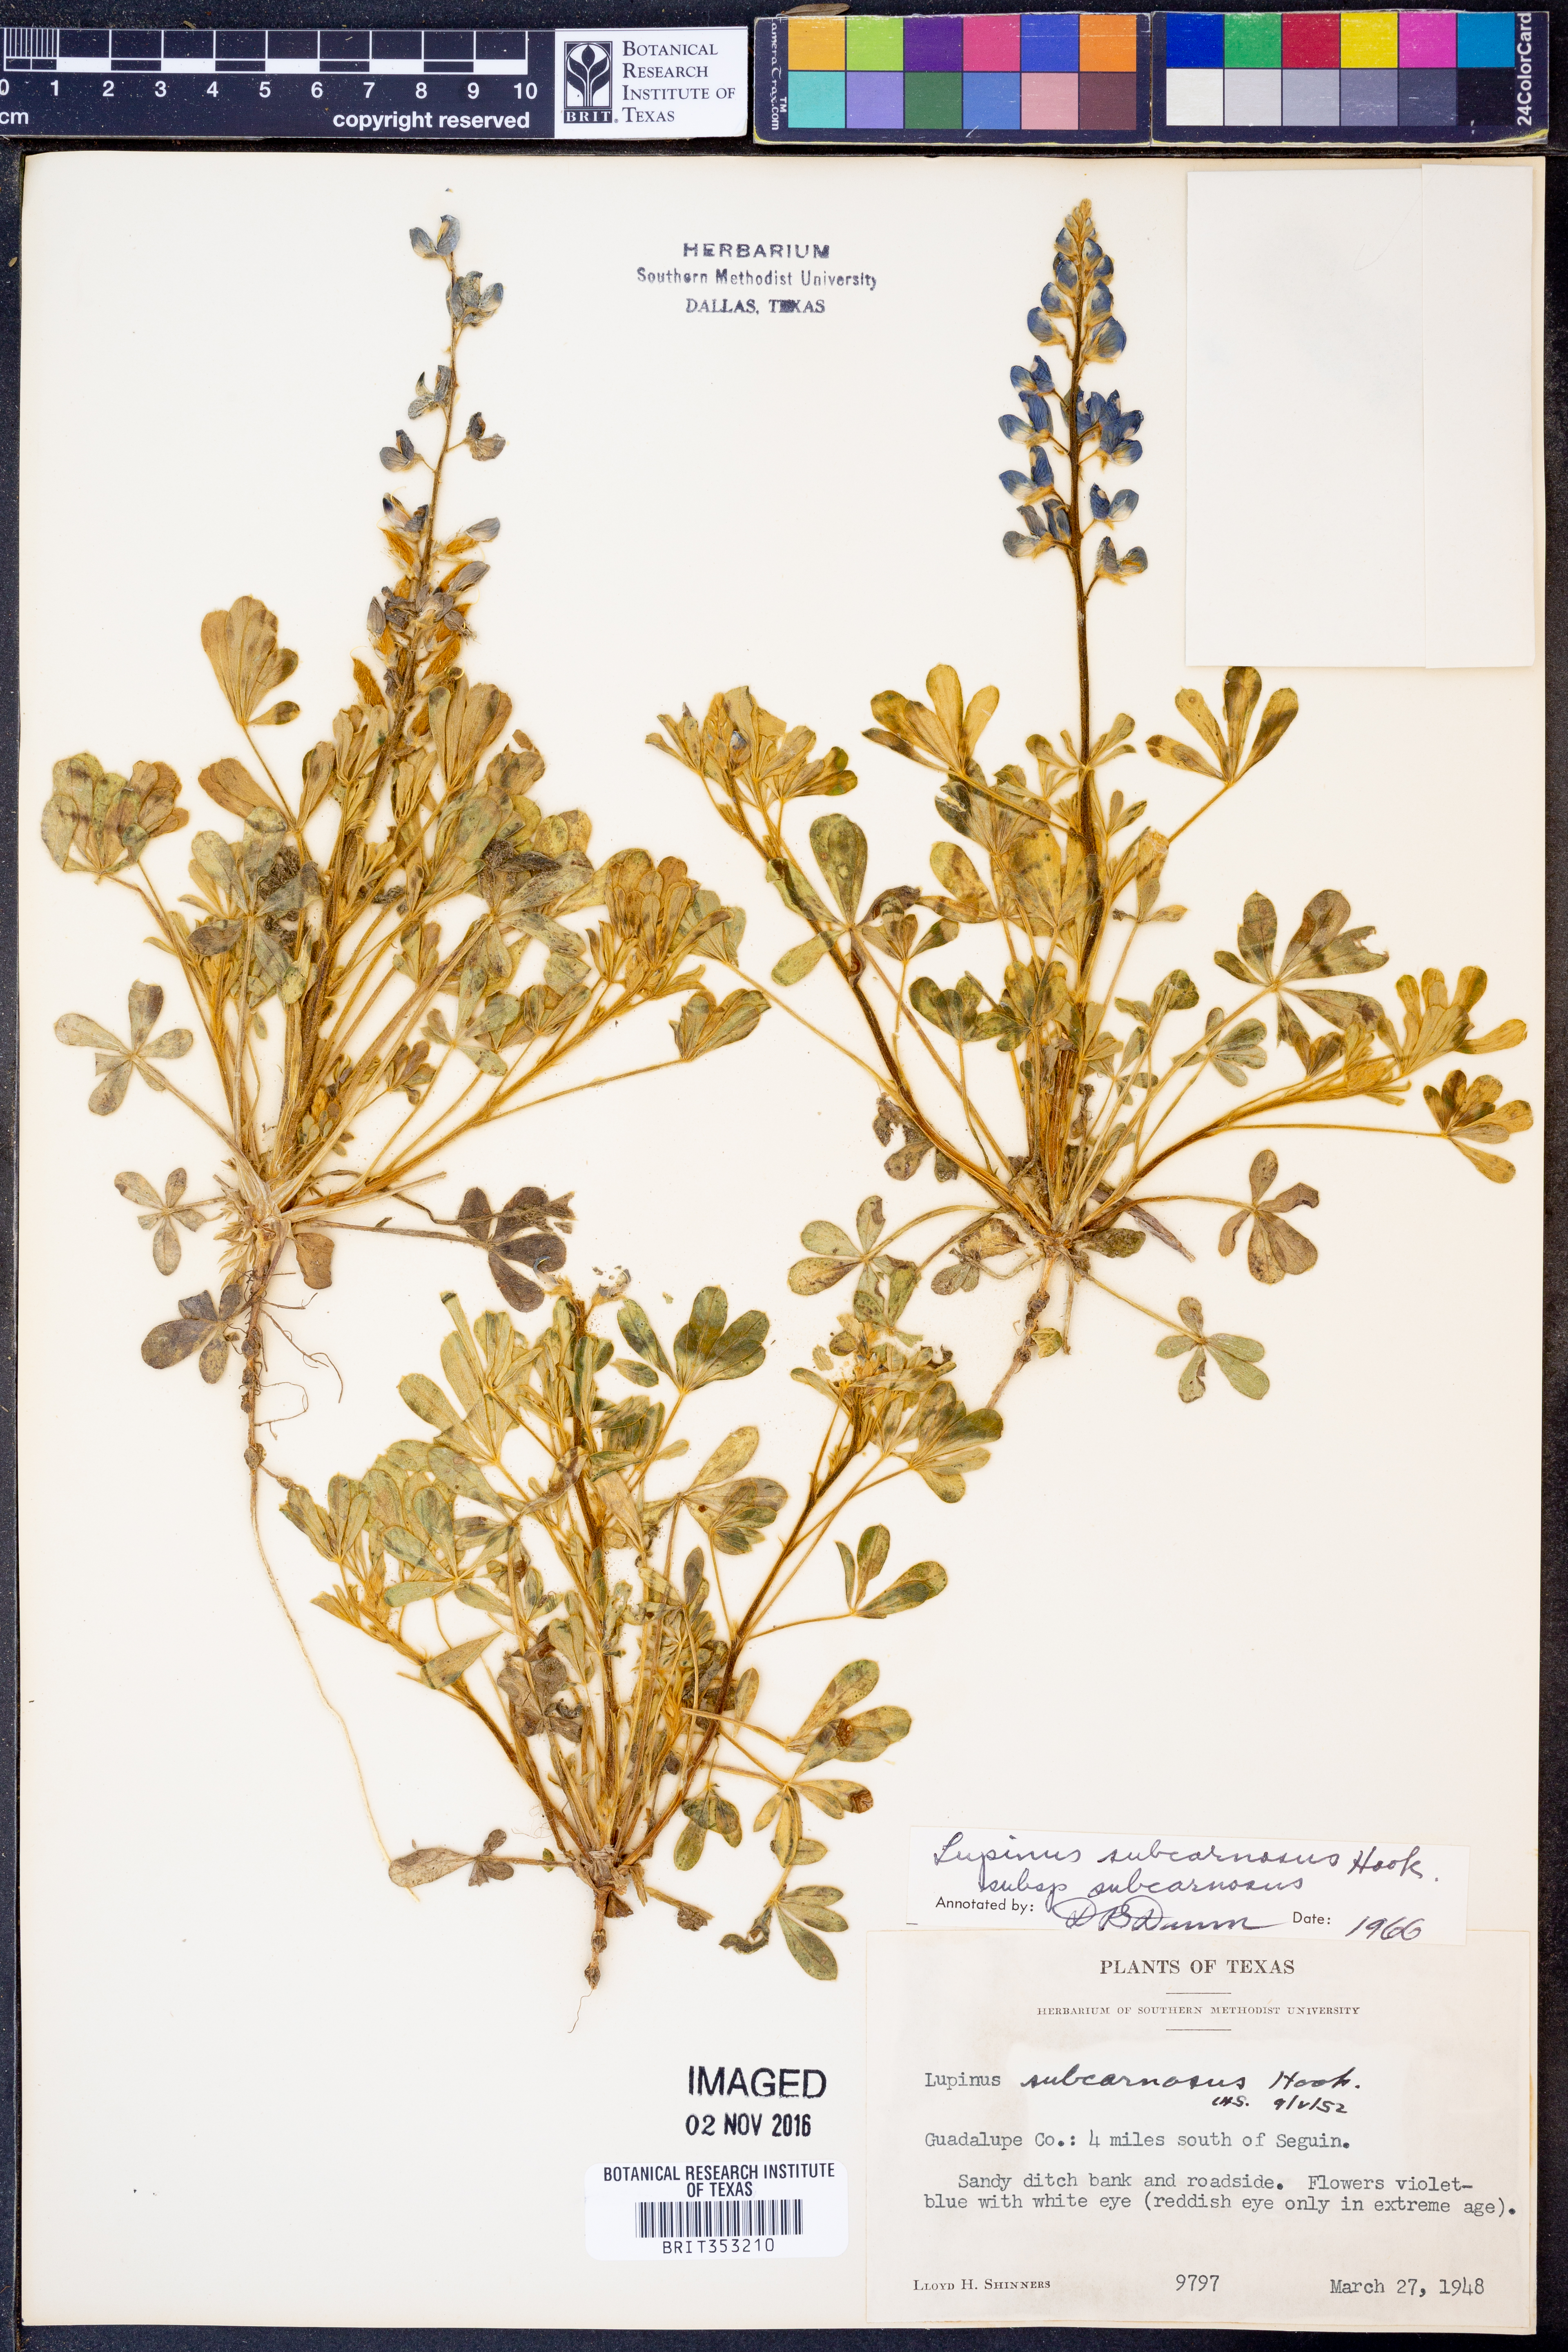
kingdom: Plantae
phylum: Tracheophyta
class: Magnoliopsida
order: Fabales
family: Fabaceae
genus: Lupinus
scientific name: Lupinus subcarnosus
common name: Texas bluebonnet
